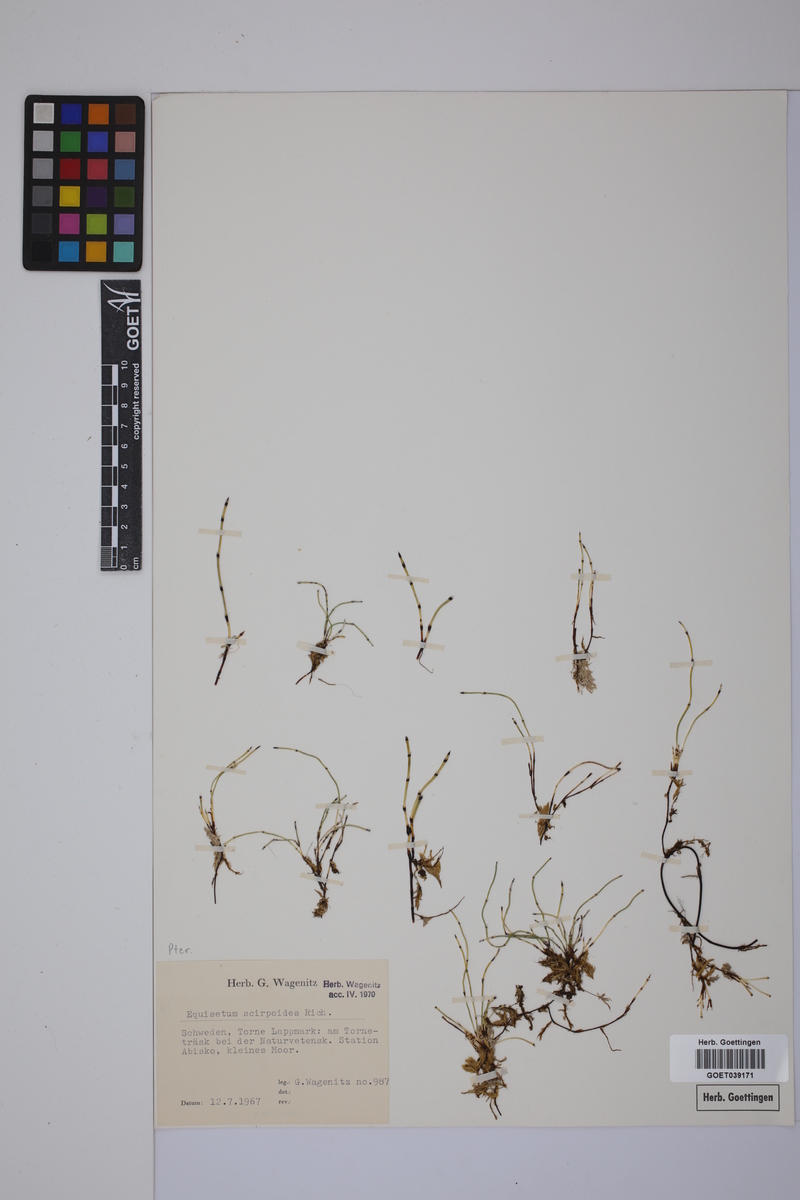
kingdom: Plantae
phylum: Tracheophyta
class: Polypodiopsida
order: Equisetales
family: Equisetaceae
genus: Equisetum
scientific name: Equisetum scirpoides
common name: Delicate horsetail
